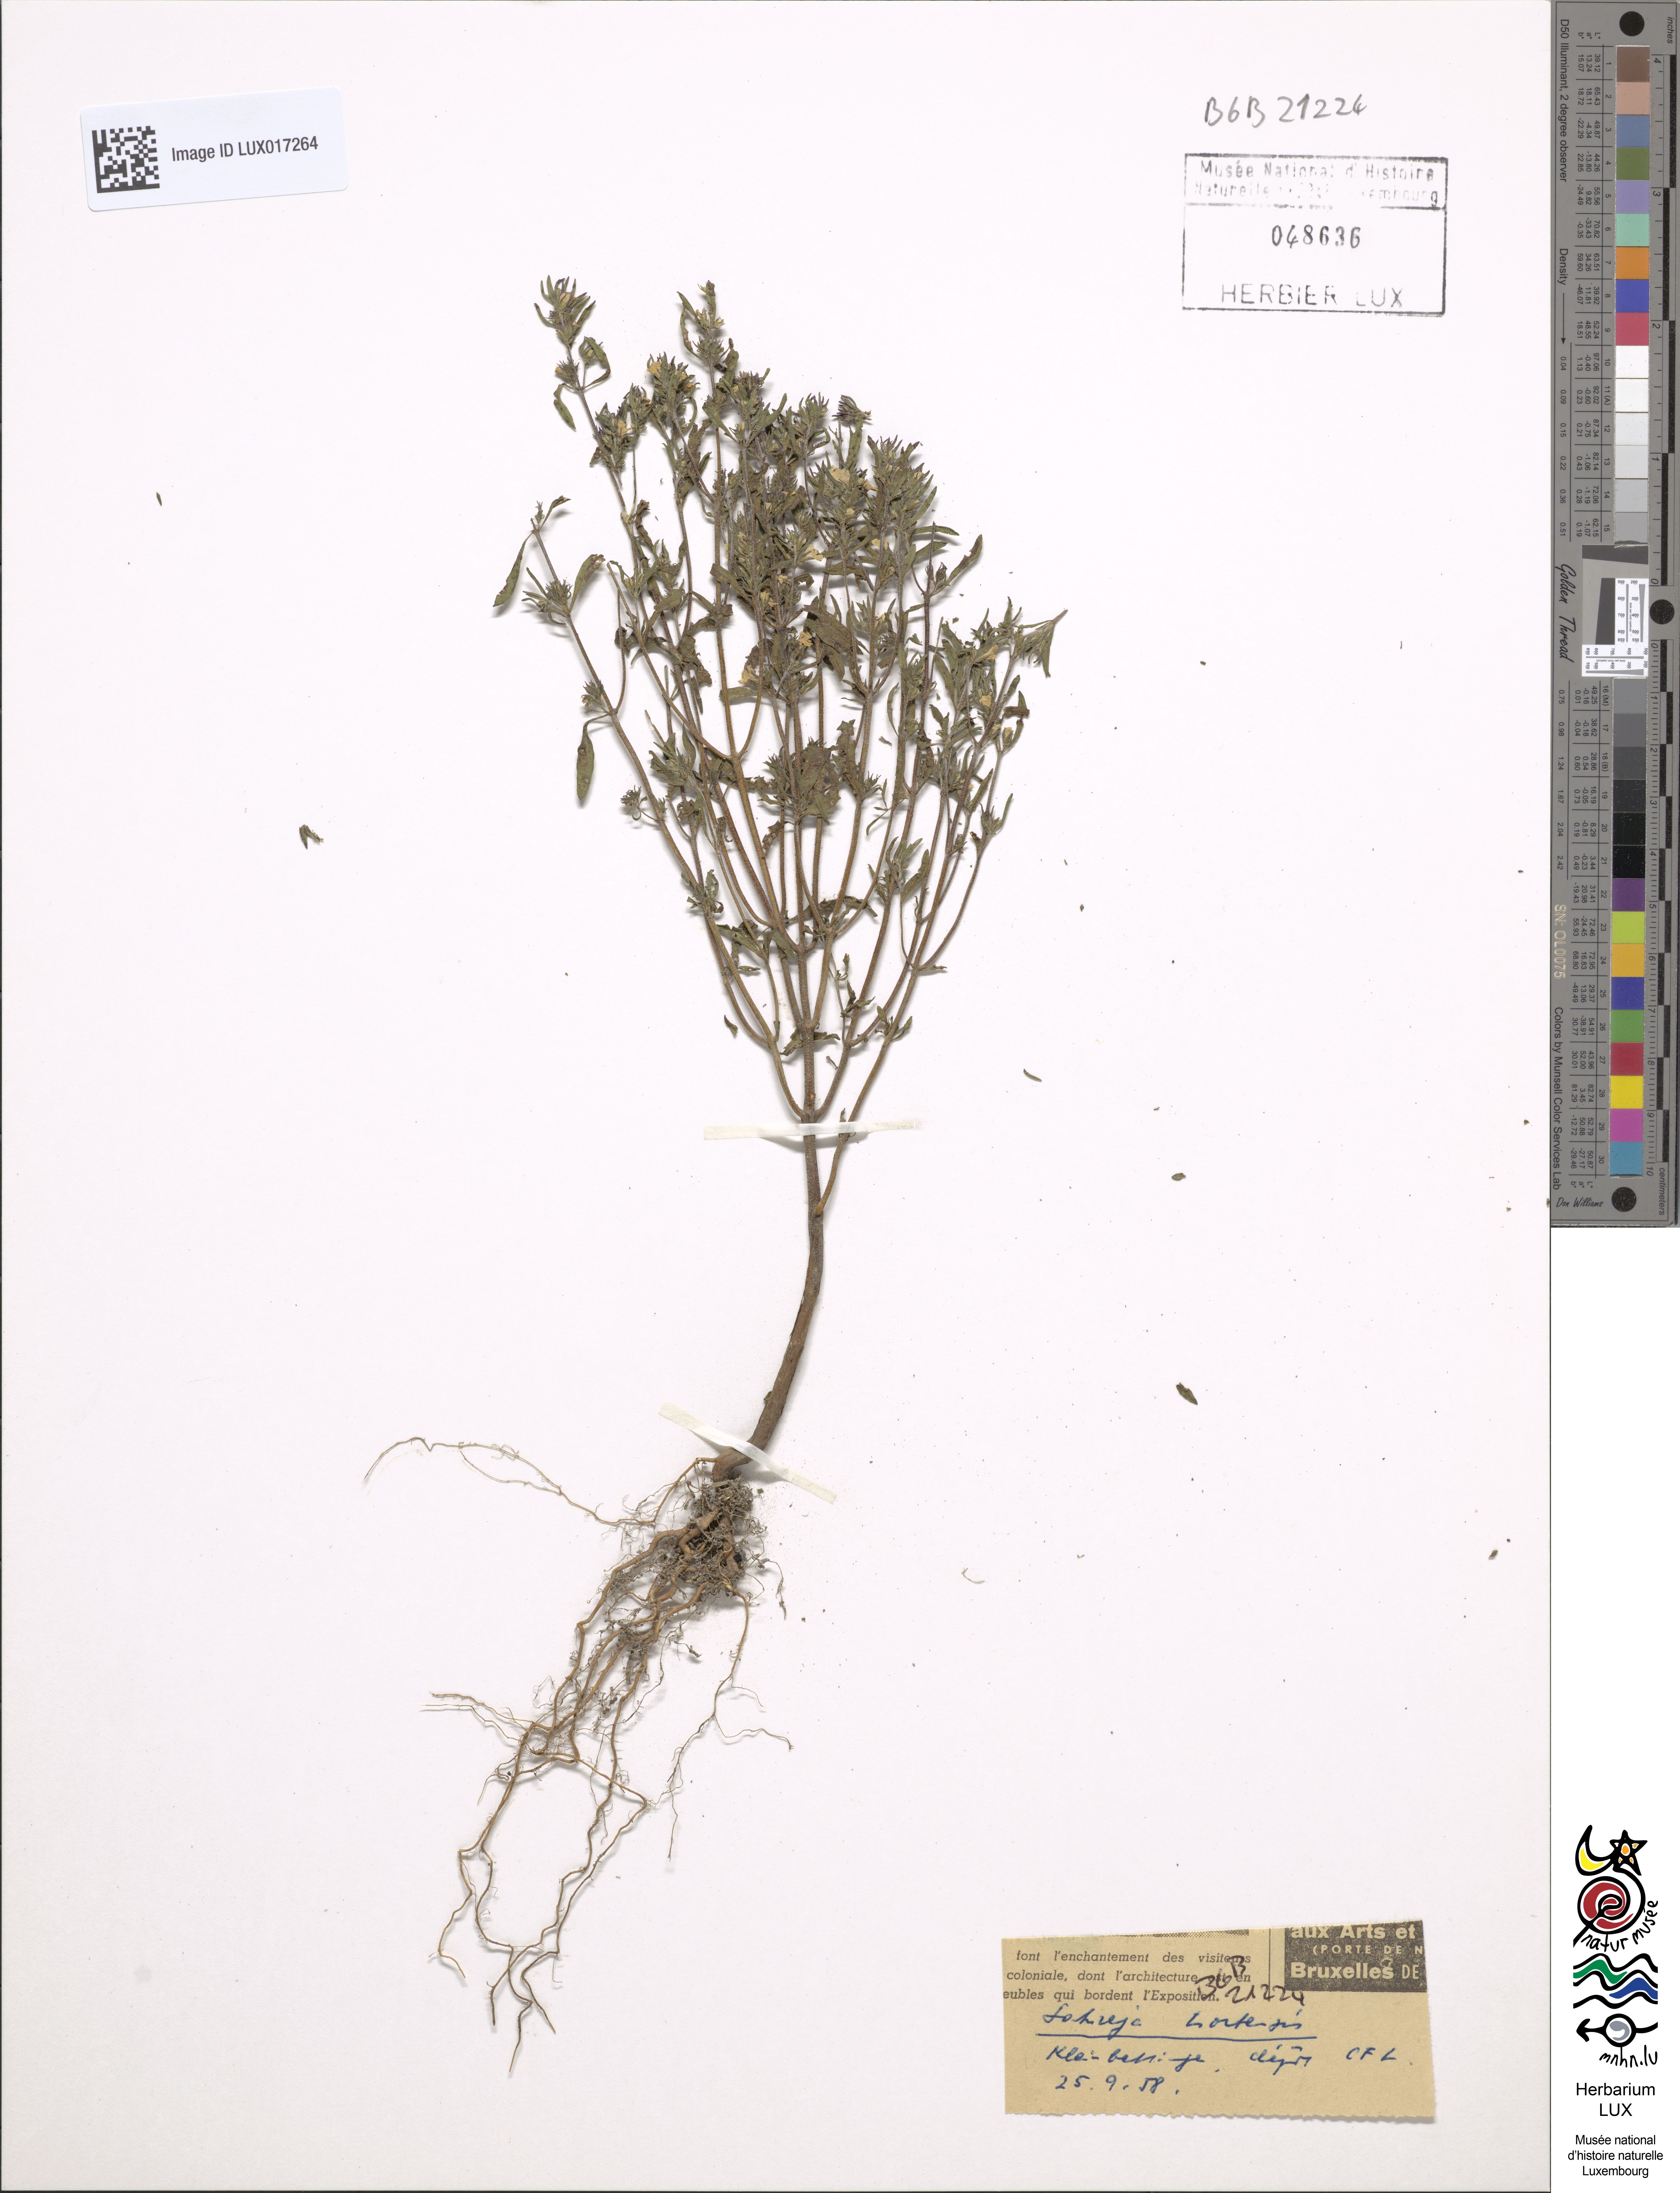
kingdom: Plantae
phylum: Tracheophyta
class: Magnoliopsida
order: Lamiales
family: Lamiaceae
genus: Satureja
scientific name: Satureja hortensis
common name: Summer savory
